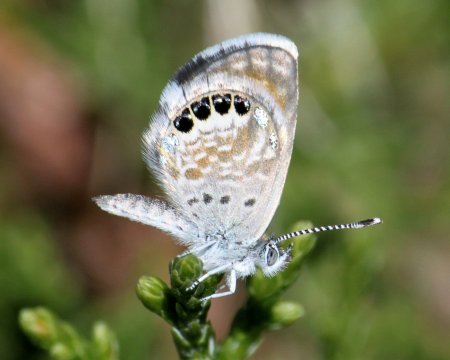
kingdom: Animalia
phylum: Arthropoda
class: Insecta
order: Lepidoptera
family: Lycaenidae
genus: Brephidium
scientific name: Brephidium exilis
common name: Western Pygmy-Blue
